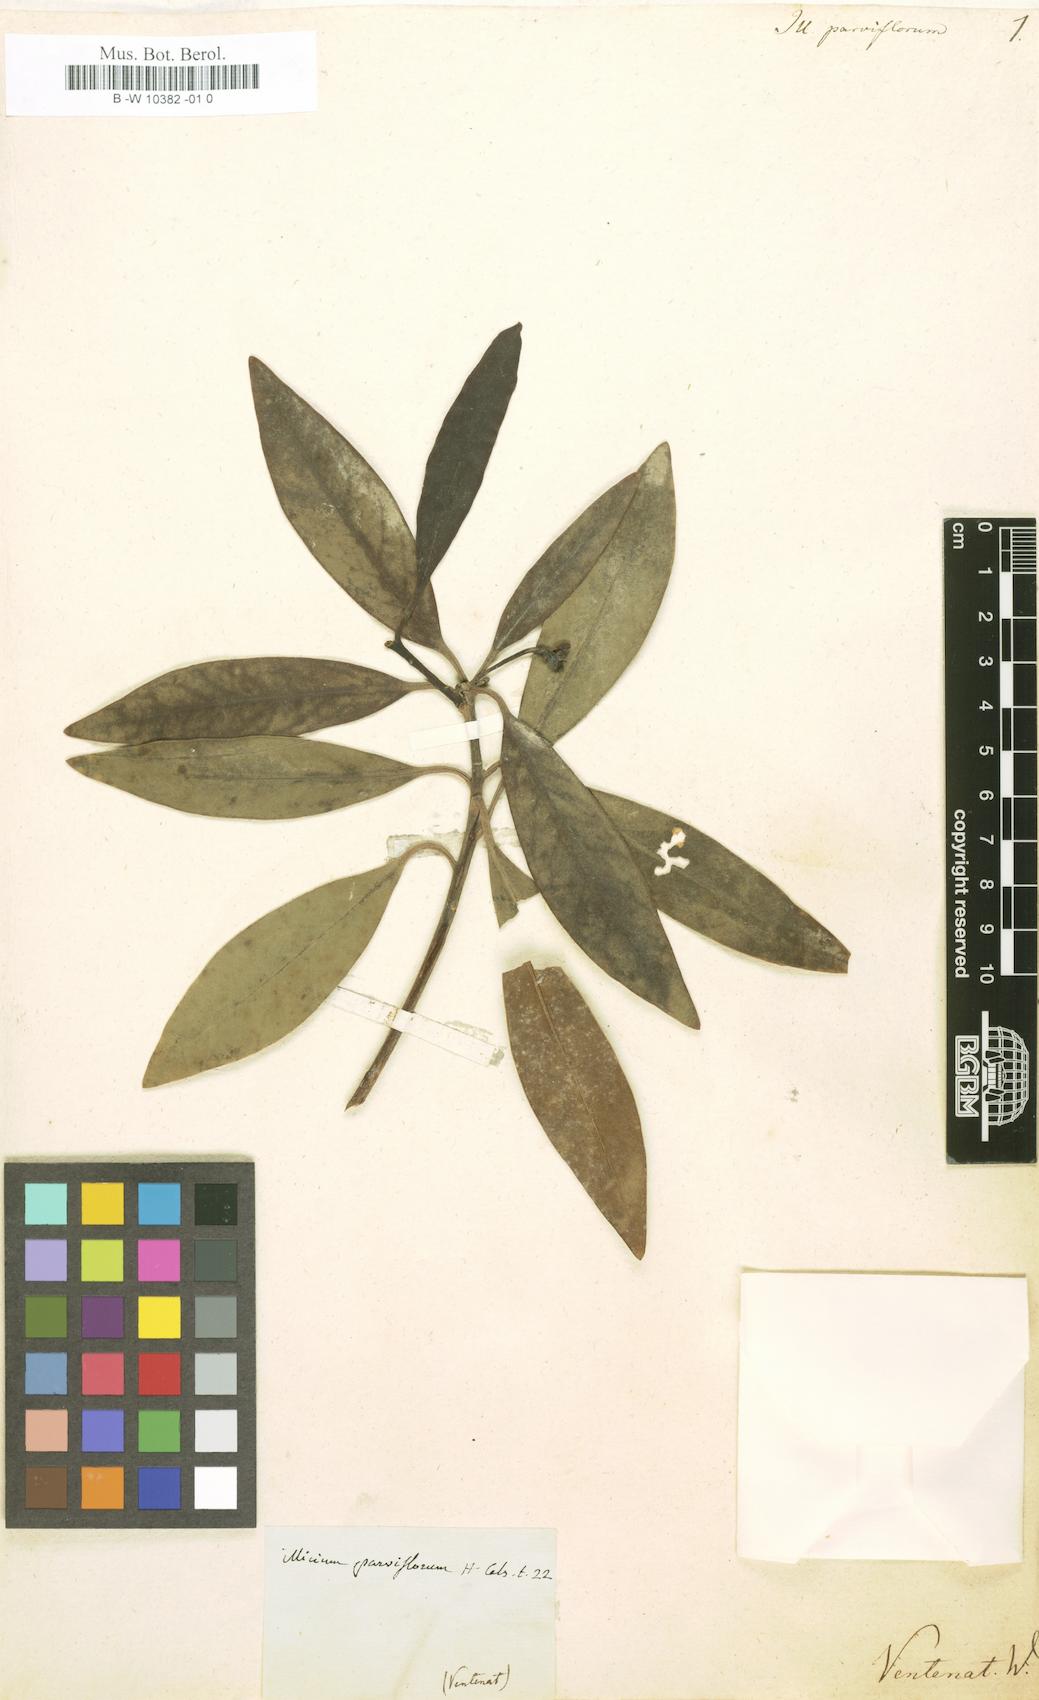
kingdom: Plantae
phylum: Tracheophyta
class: Magnoliopsida
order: Austrobaileyales
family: Schisandraceae
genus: Illicium
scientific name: Illicium parviflorum
